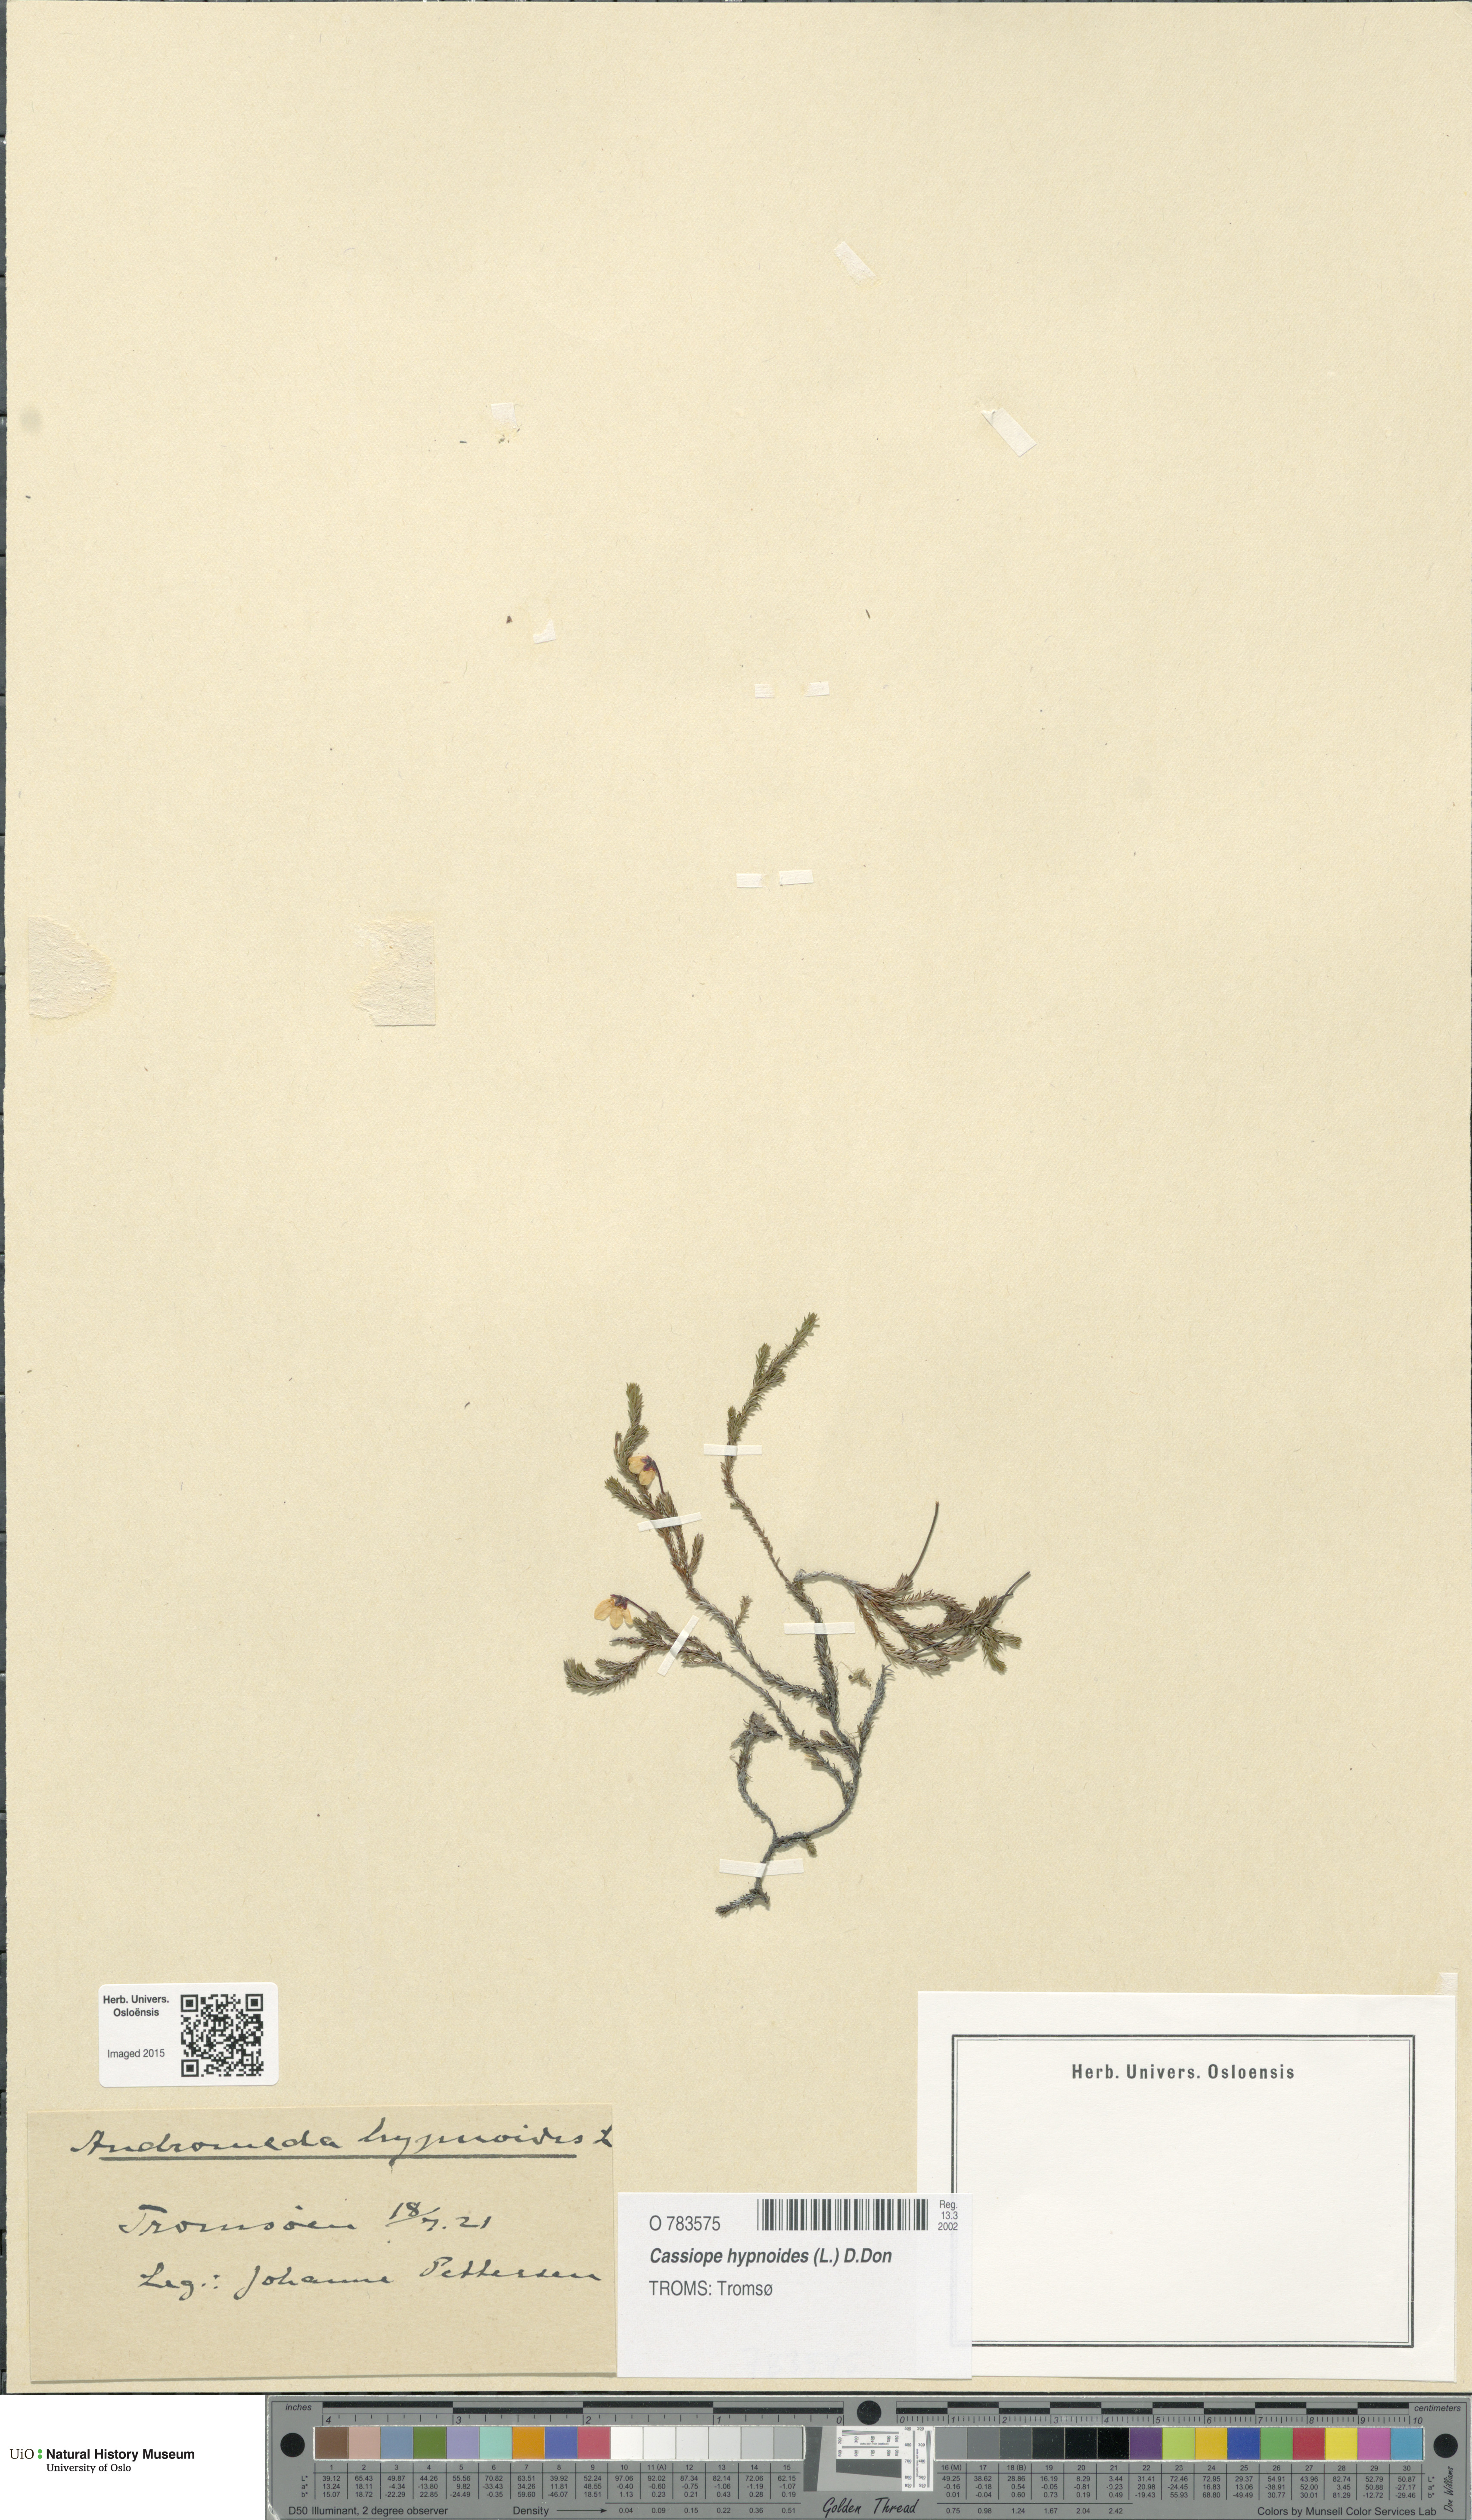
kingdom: Plantae
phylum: Tracheophyta
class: Magnoliopsida
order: Ericales
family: Ericaceae
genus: Harrimanella
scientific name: Harrimanella hypnoides
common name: Moss bell heather
